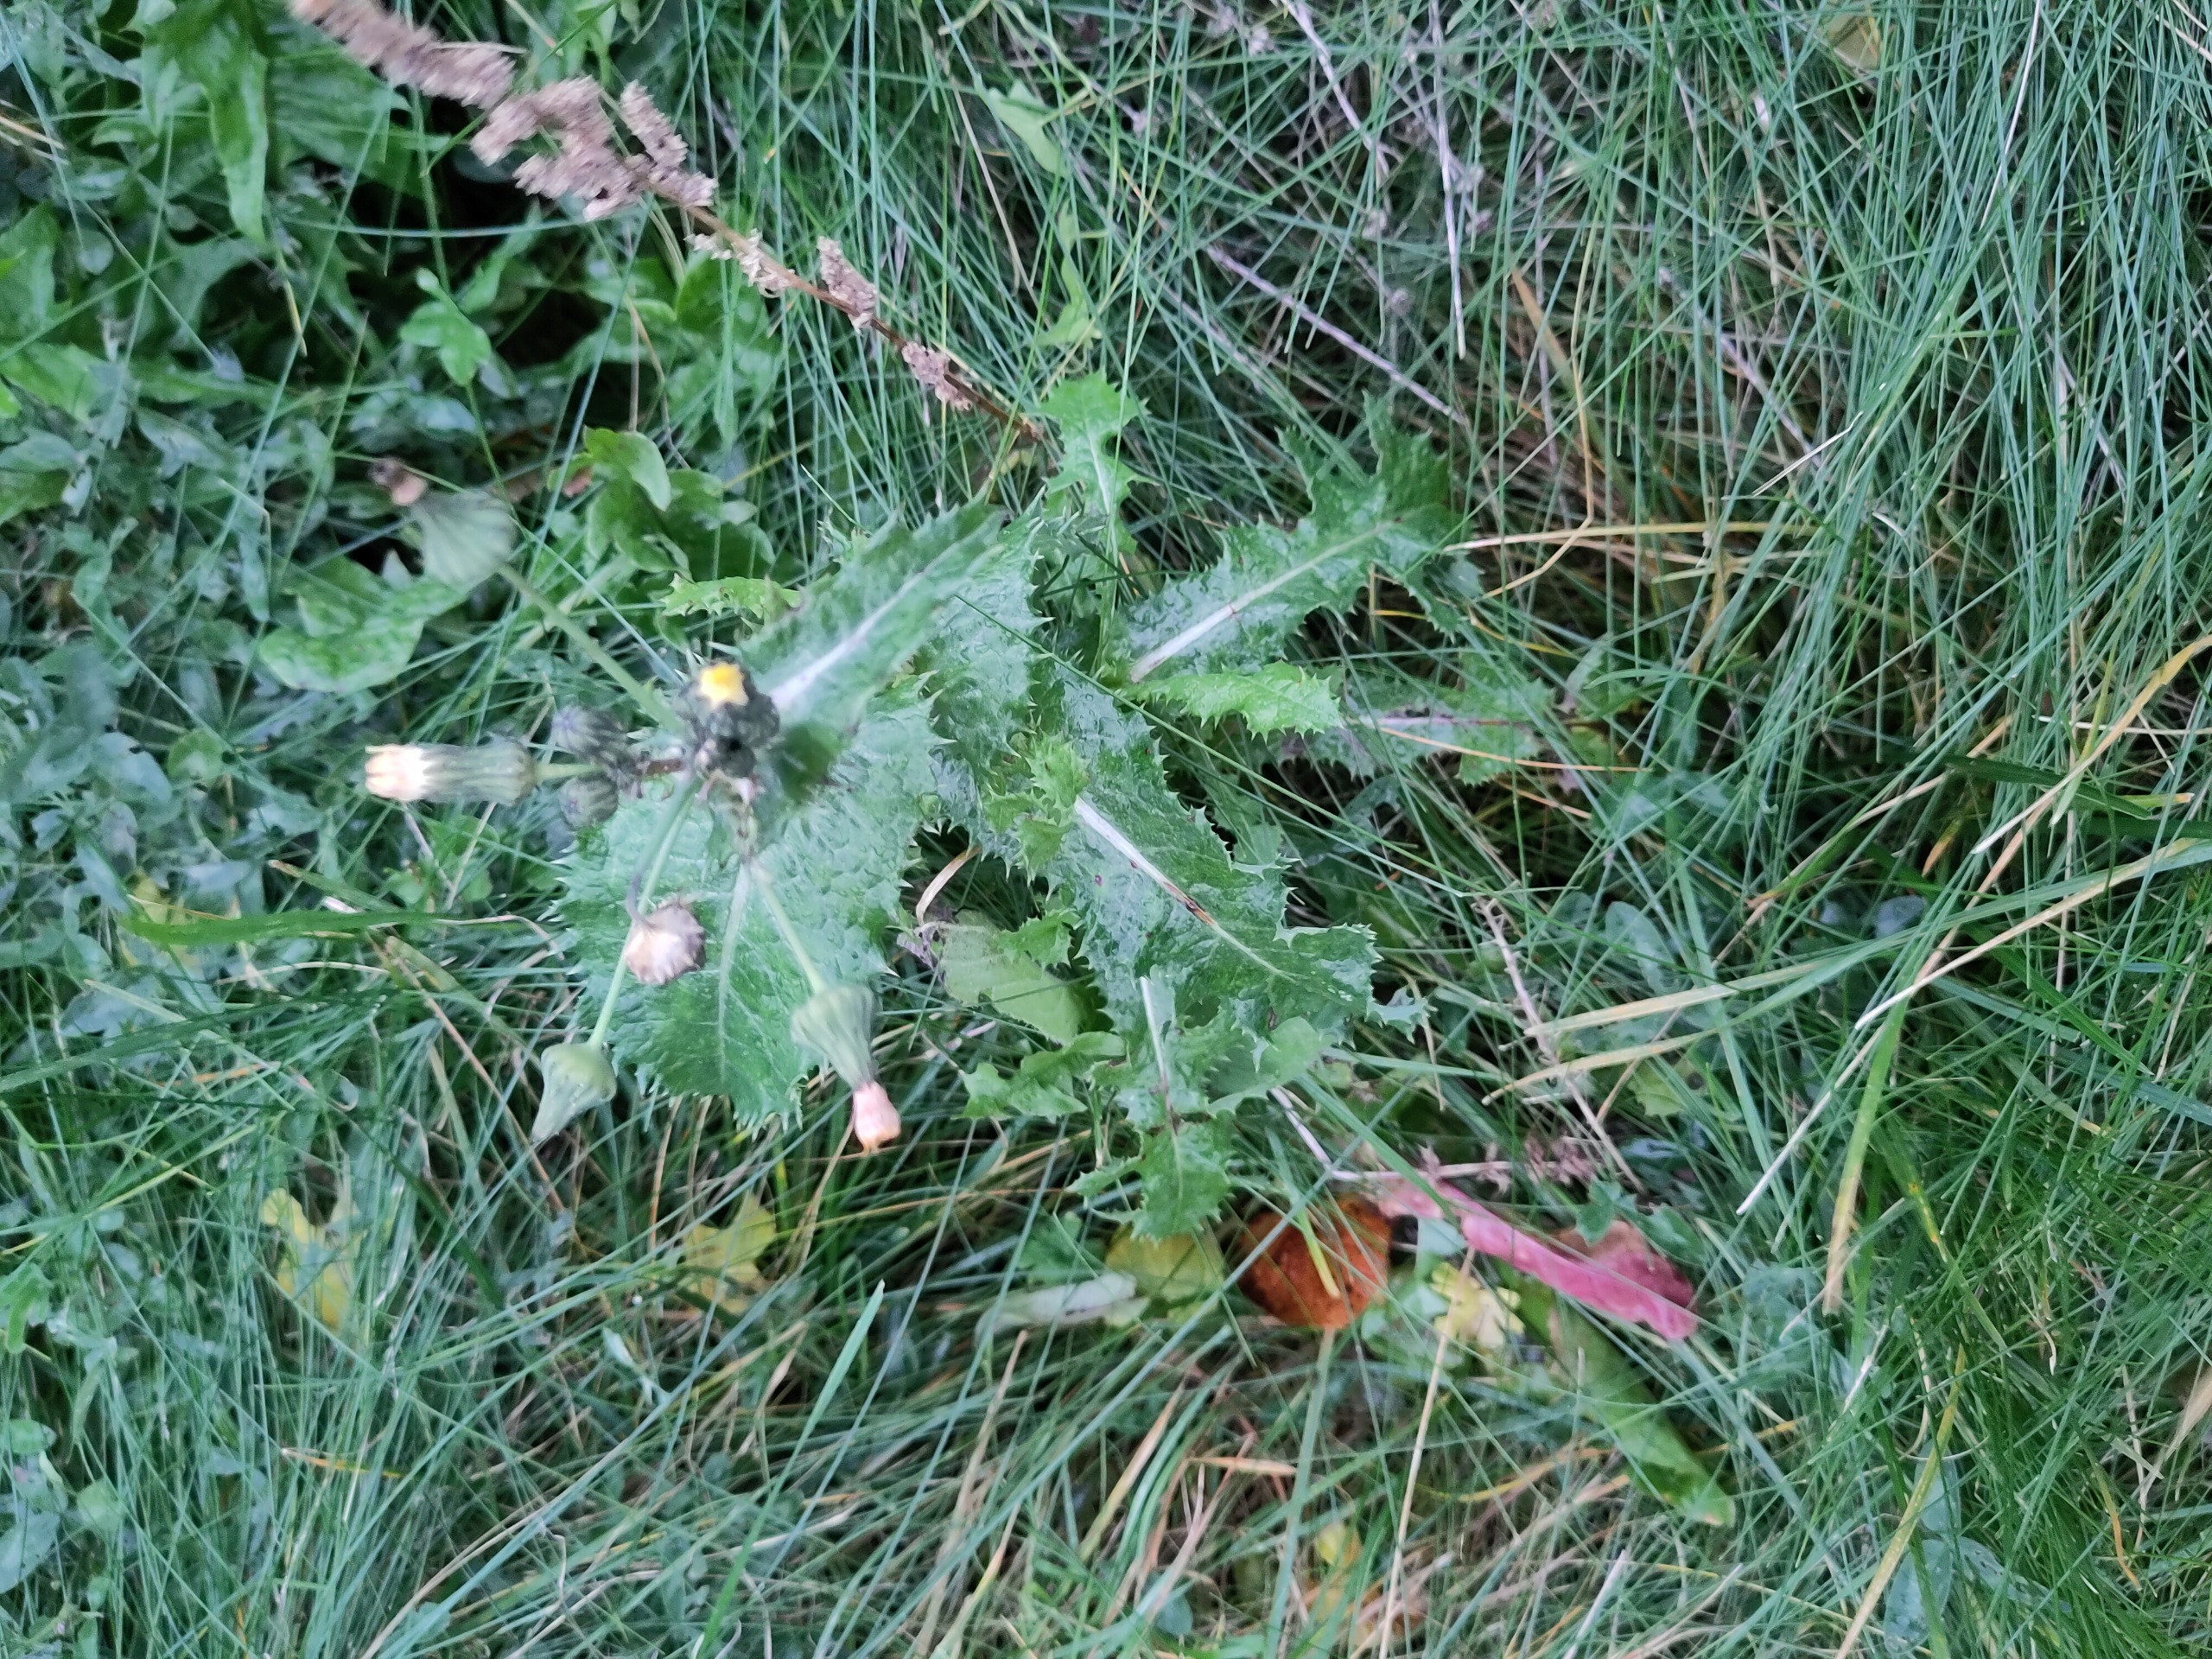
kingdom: Plantae
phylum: Tracheophyta
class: Magnoliopsida
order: Asterales
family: Asteraceae
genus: Sonchus
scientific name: Sonchus asper
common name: Ru svinemælk
